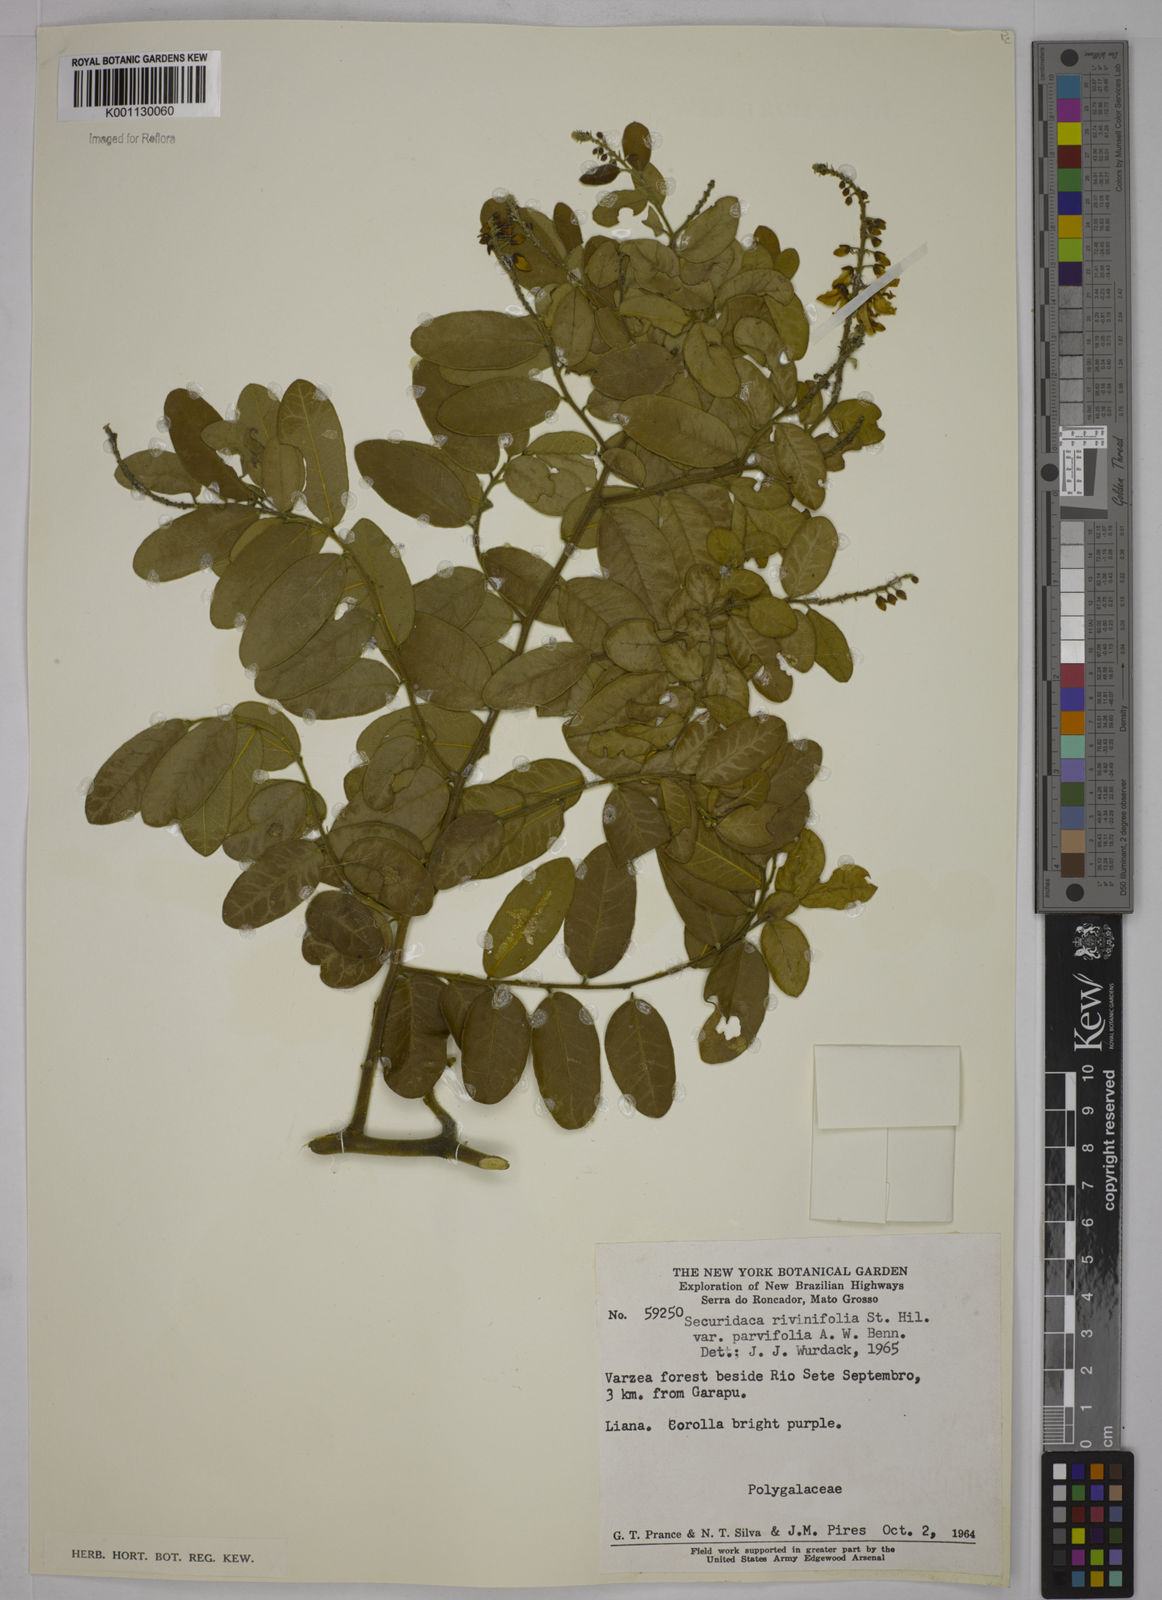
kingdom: Plantae
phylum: Tracheophyta
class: Magnoliopsida
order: Fabales
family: Polygalaceae
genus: Securidaca
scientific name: Securidaca rivinifolia
